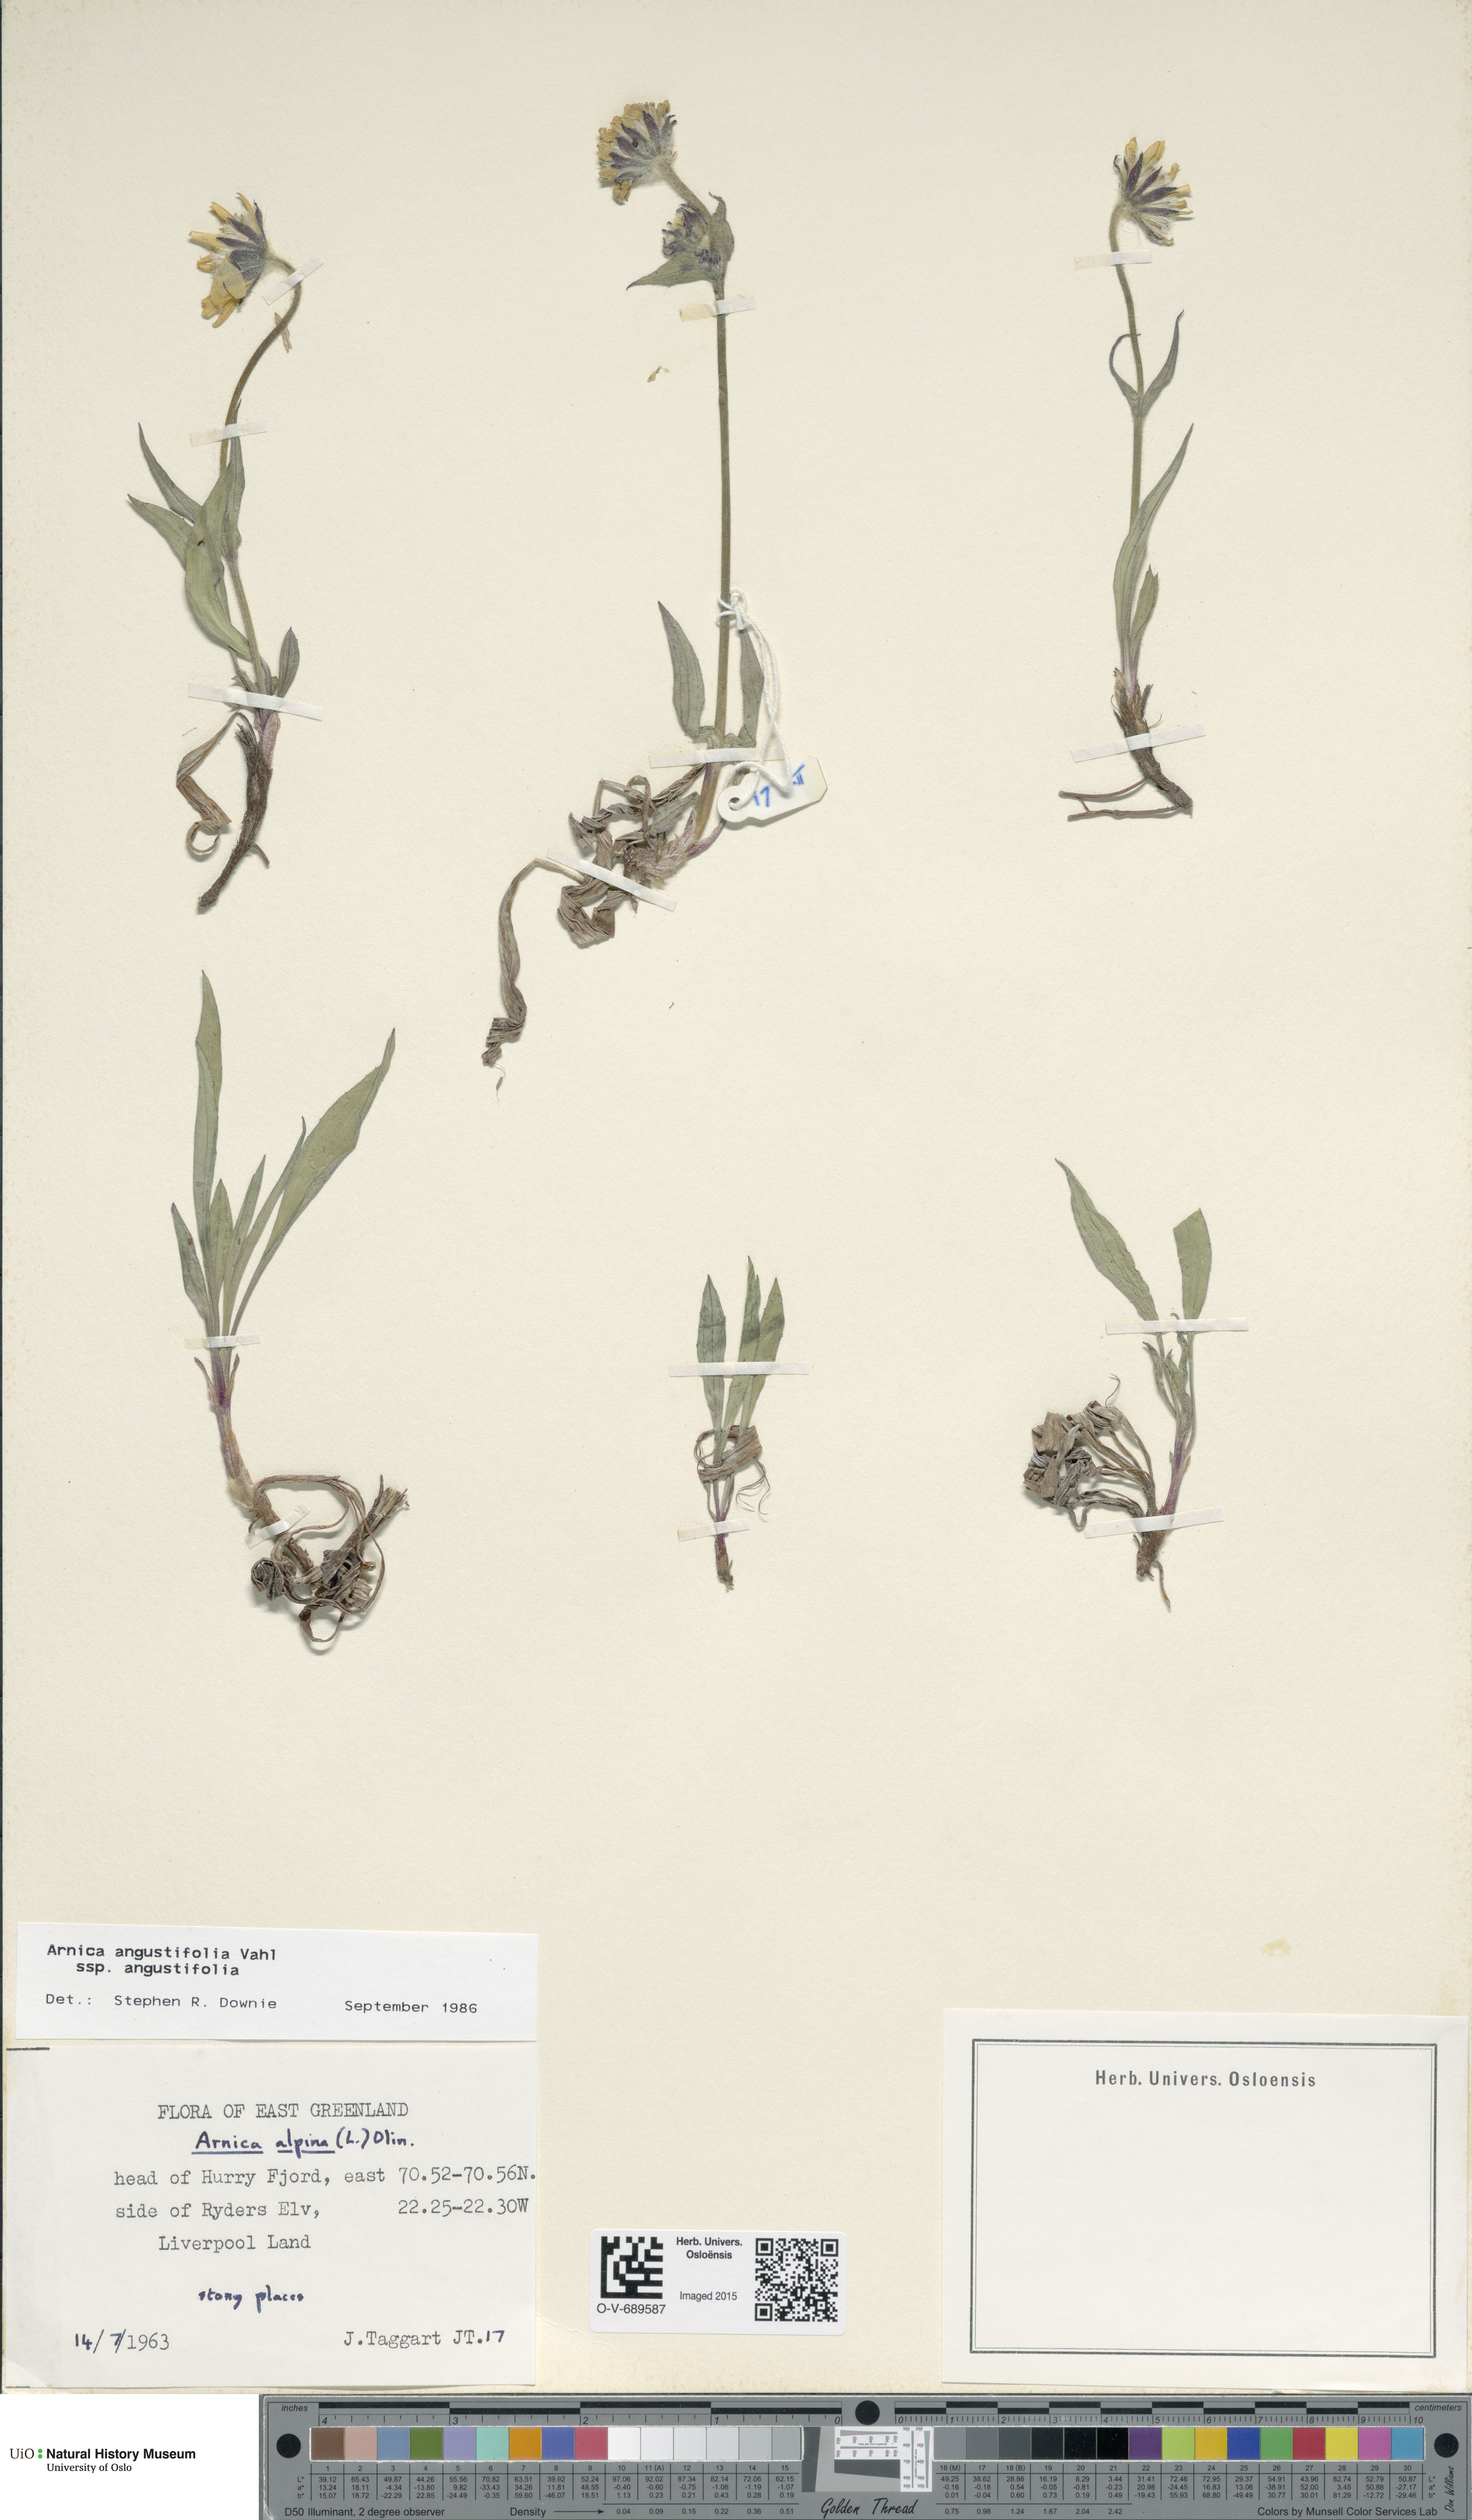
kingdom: Plantae
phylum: Tracheophyta
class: Magnoliopsida
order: Asterales
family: Asteraceae
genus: Arnica
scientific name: Arnica angustifolia
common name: Arctic arnica
